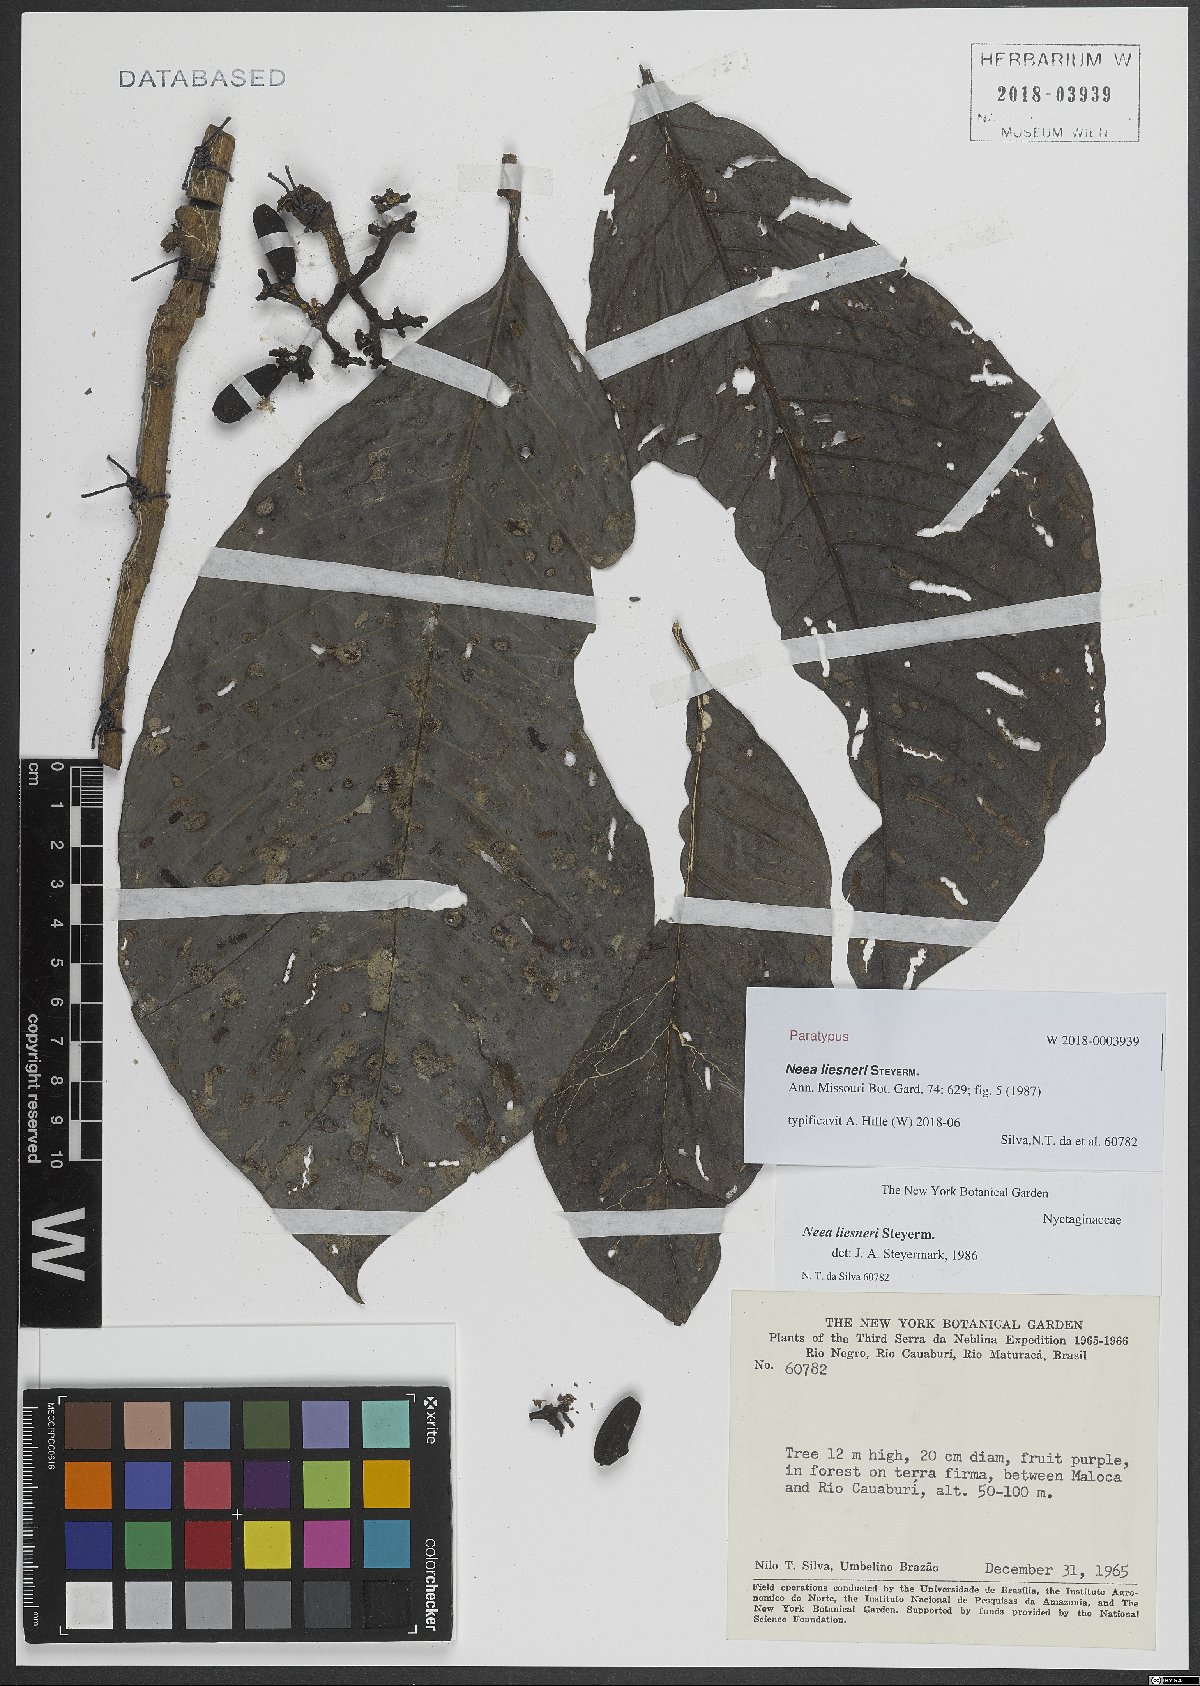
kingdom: Plantae
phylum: Tracheophyta
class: Magnoliopsida
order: Caryophyllales
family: Nyctaginaceae
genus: Neea
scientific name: Neea liesneri
